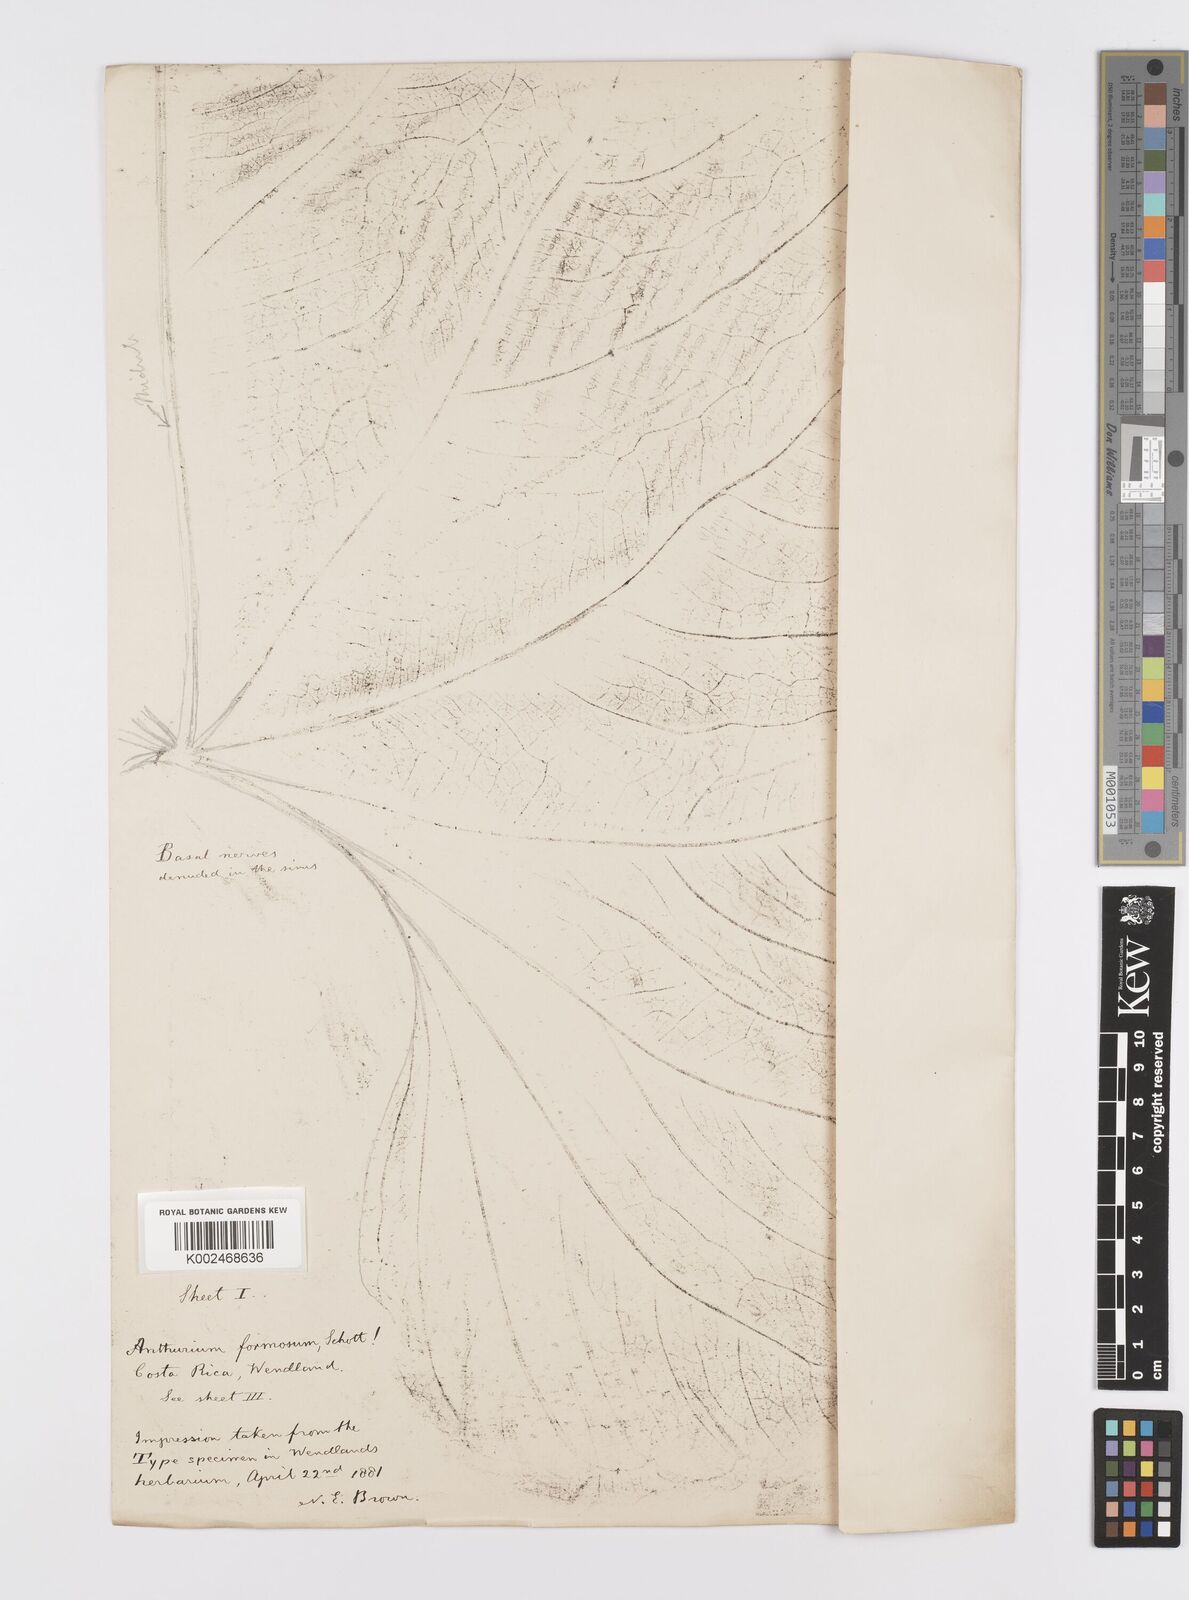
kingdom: Plantae
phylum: Tracheophyta
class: Liliopsida
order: Alismatales
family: Araceae
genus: Anthurium
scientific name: Anthurium formosum
